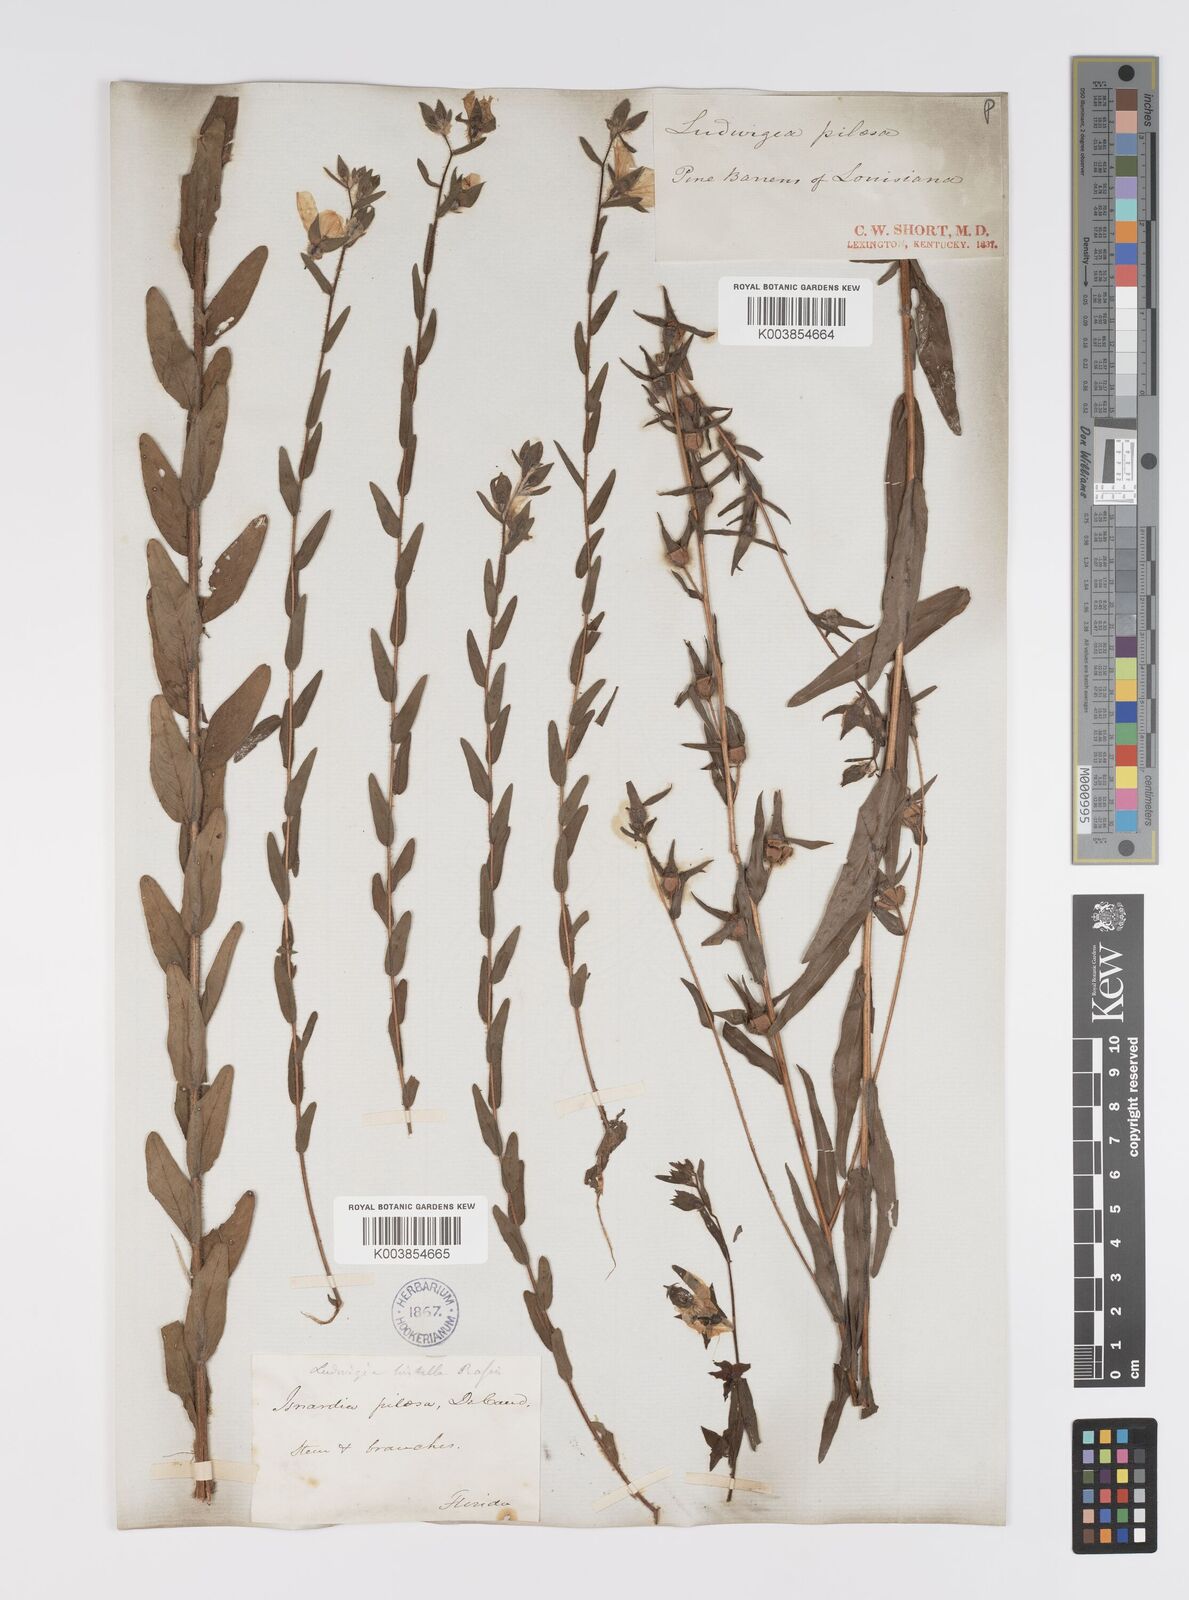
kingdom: Plantae
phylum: Tracheophyta
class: Magnoliopsida
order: Myrtales
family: Onagraceae
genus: Ludwigia
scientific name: Ludwigia hirtella
